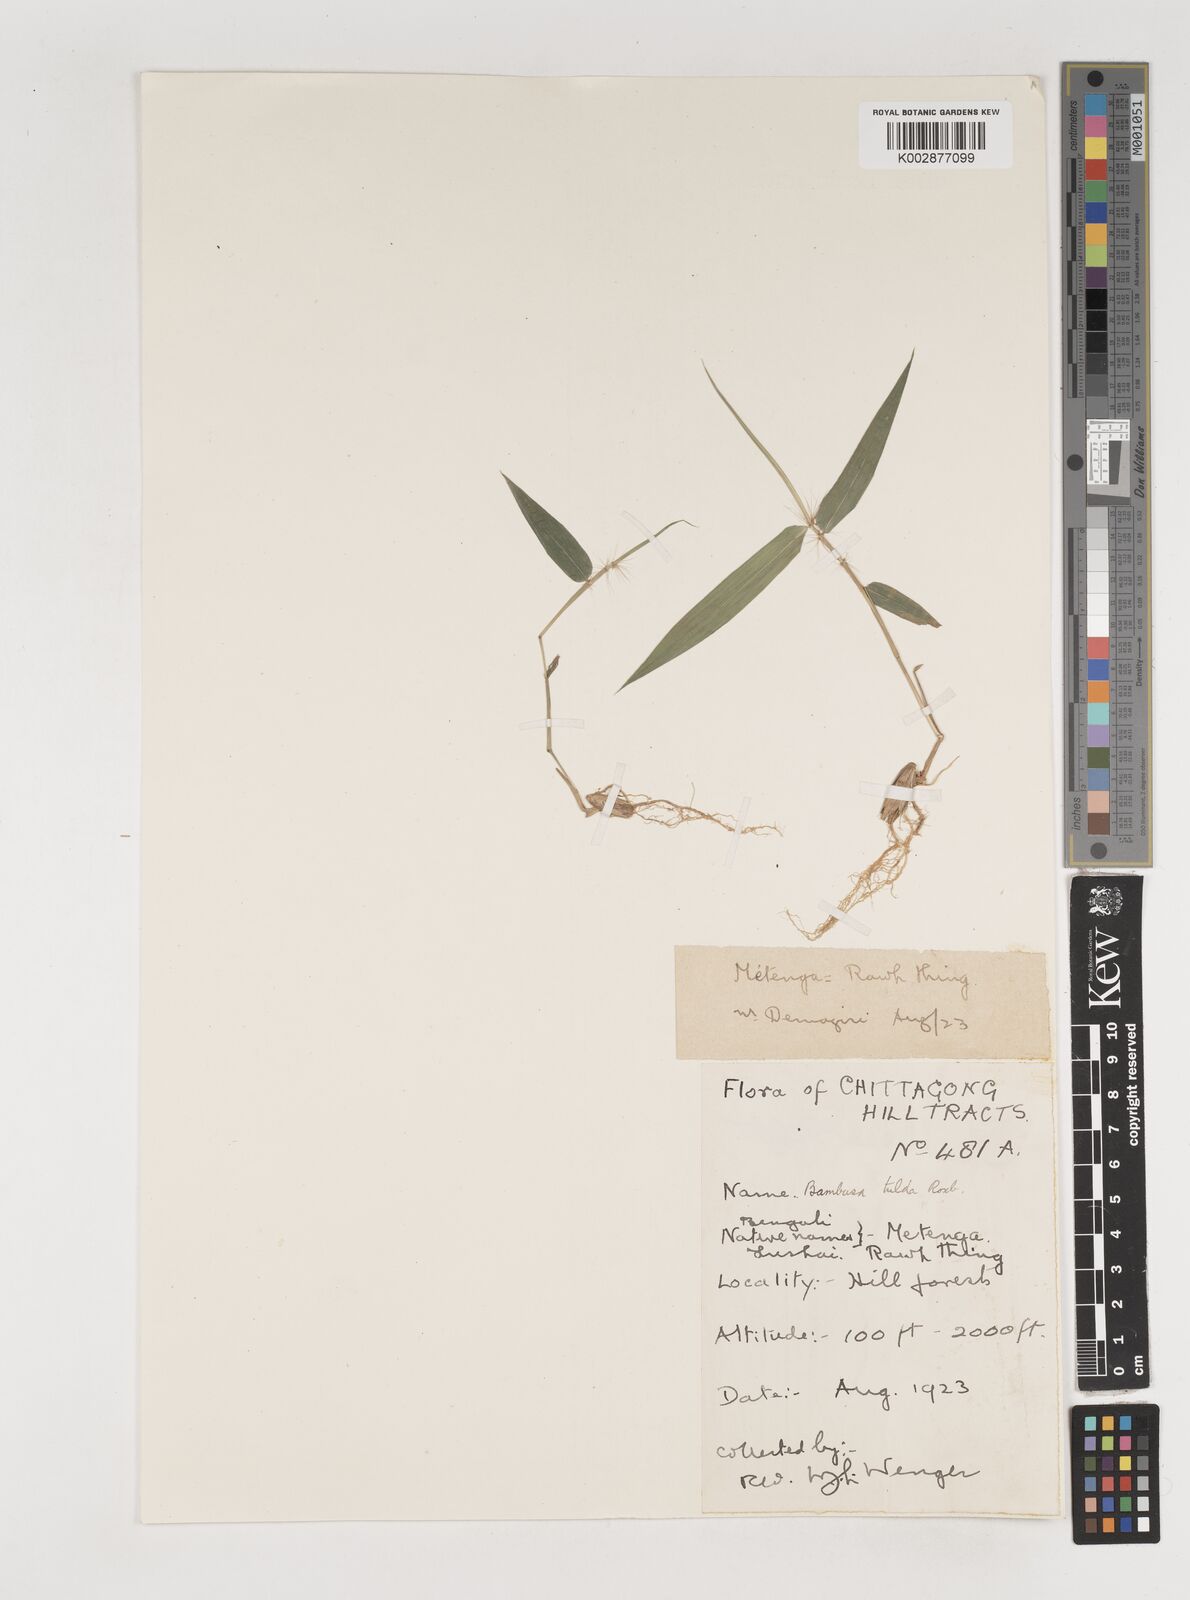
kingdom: Plantae
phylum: Tracheophyta
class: Liliopsida
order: Poales
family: Poaceae
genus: Bambusa
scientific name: Bambusa tulda
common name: Bengal bamboo
